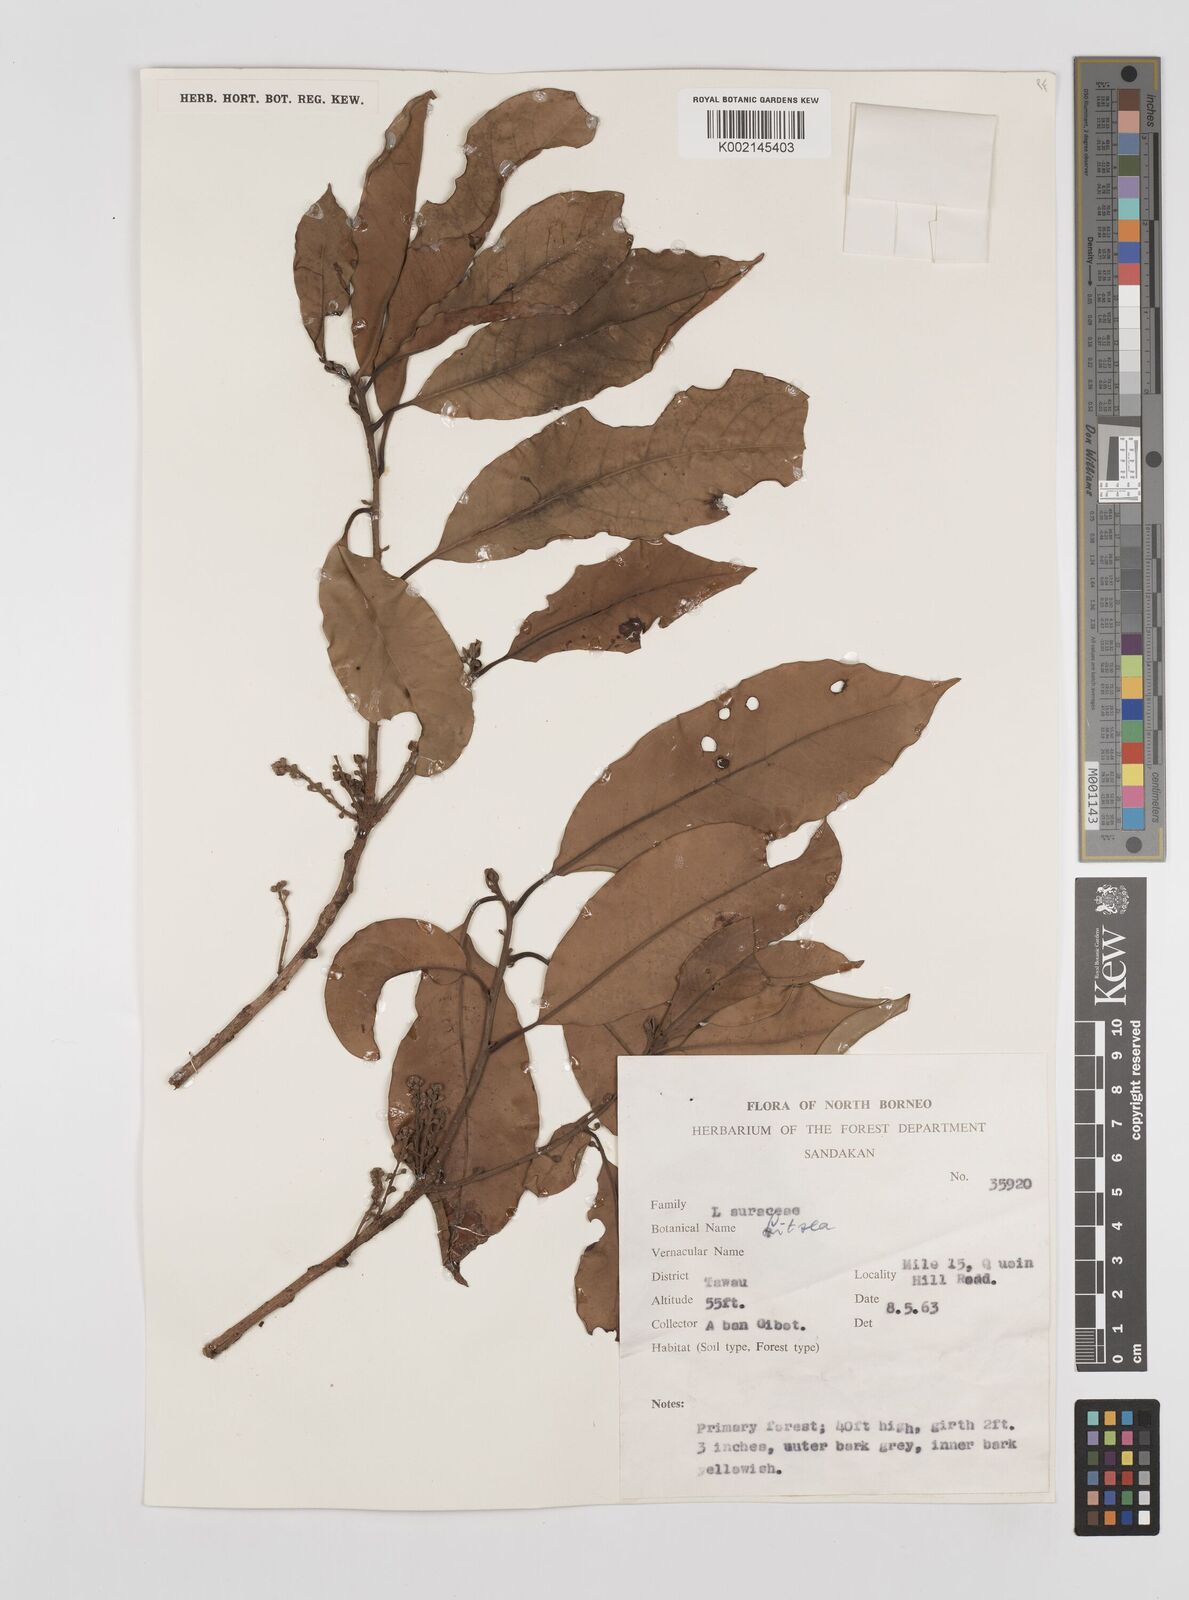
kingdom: Plantae
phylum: Tracheophyta
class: Magnoliopsida
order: Laurales
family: Lauraceae
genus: Litsea
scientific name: Litsea
